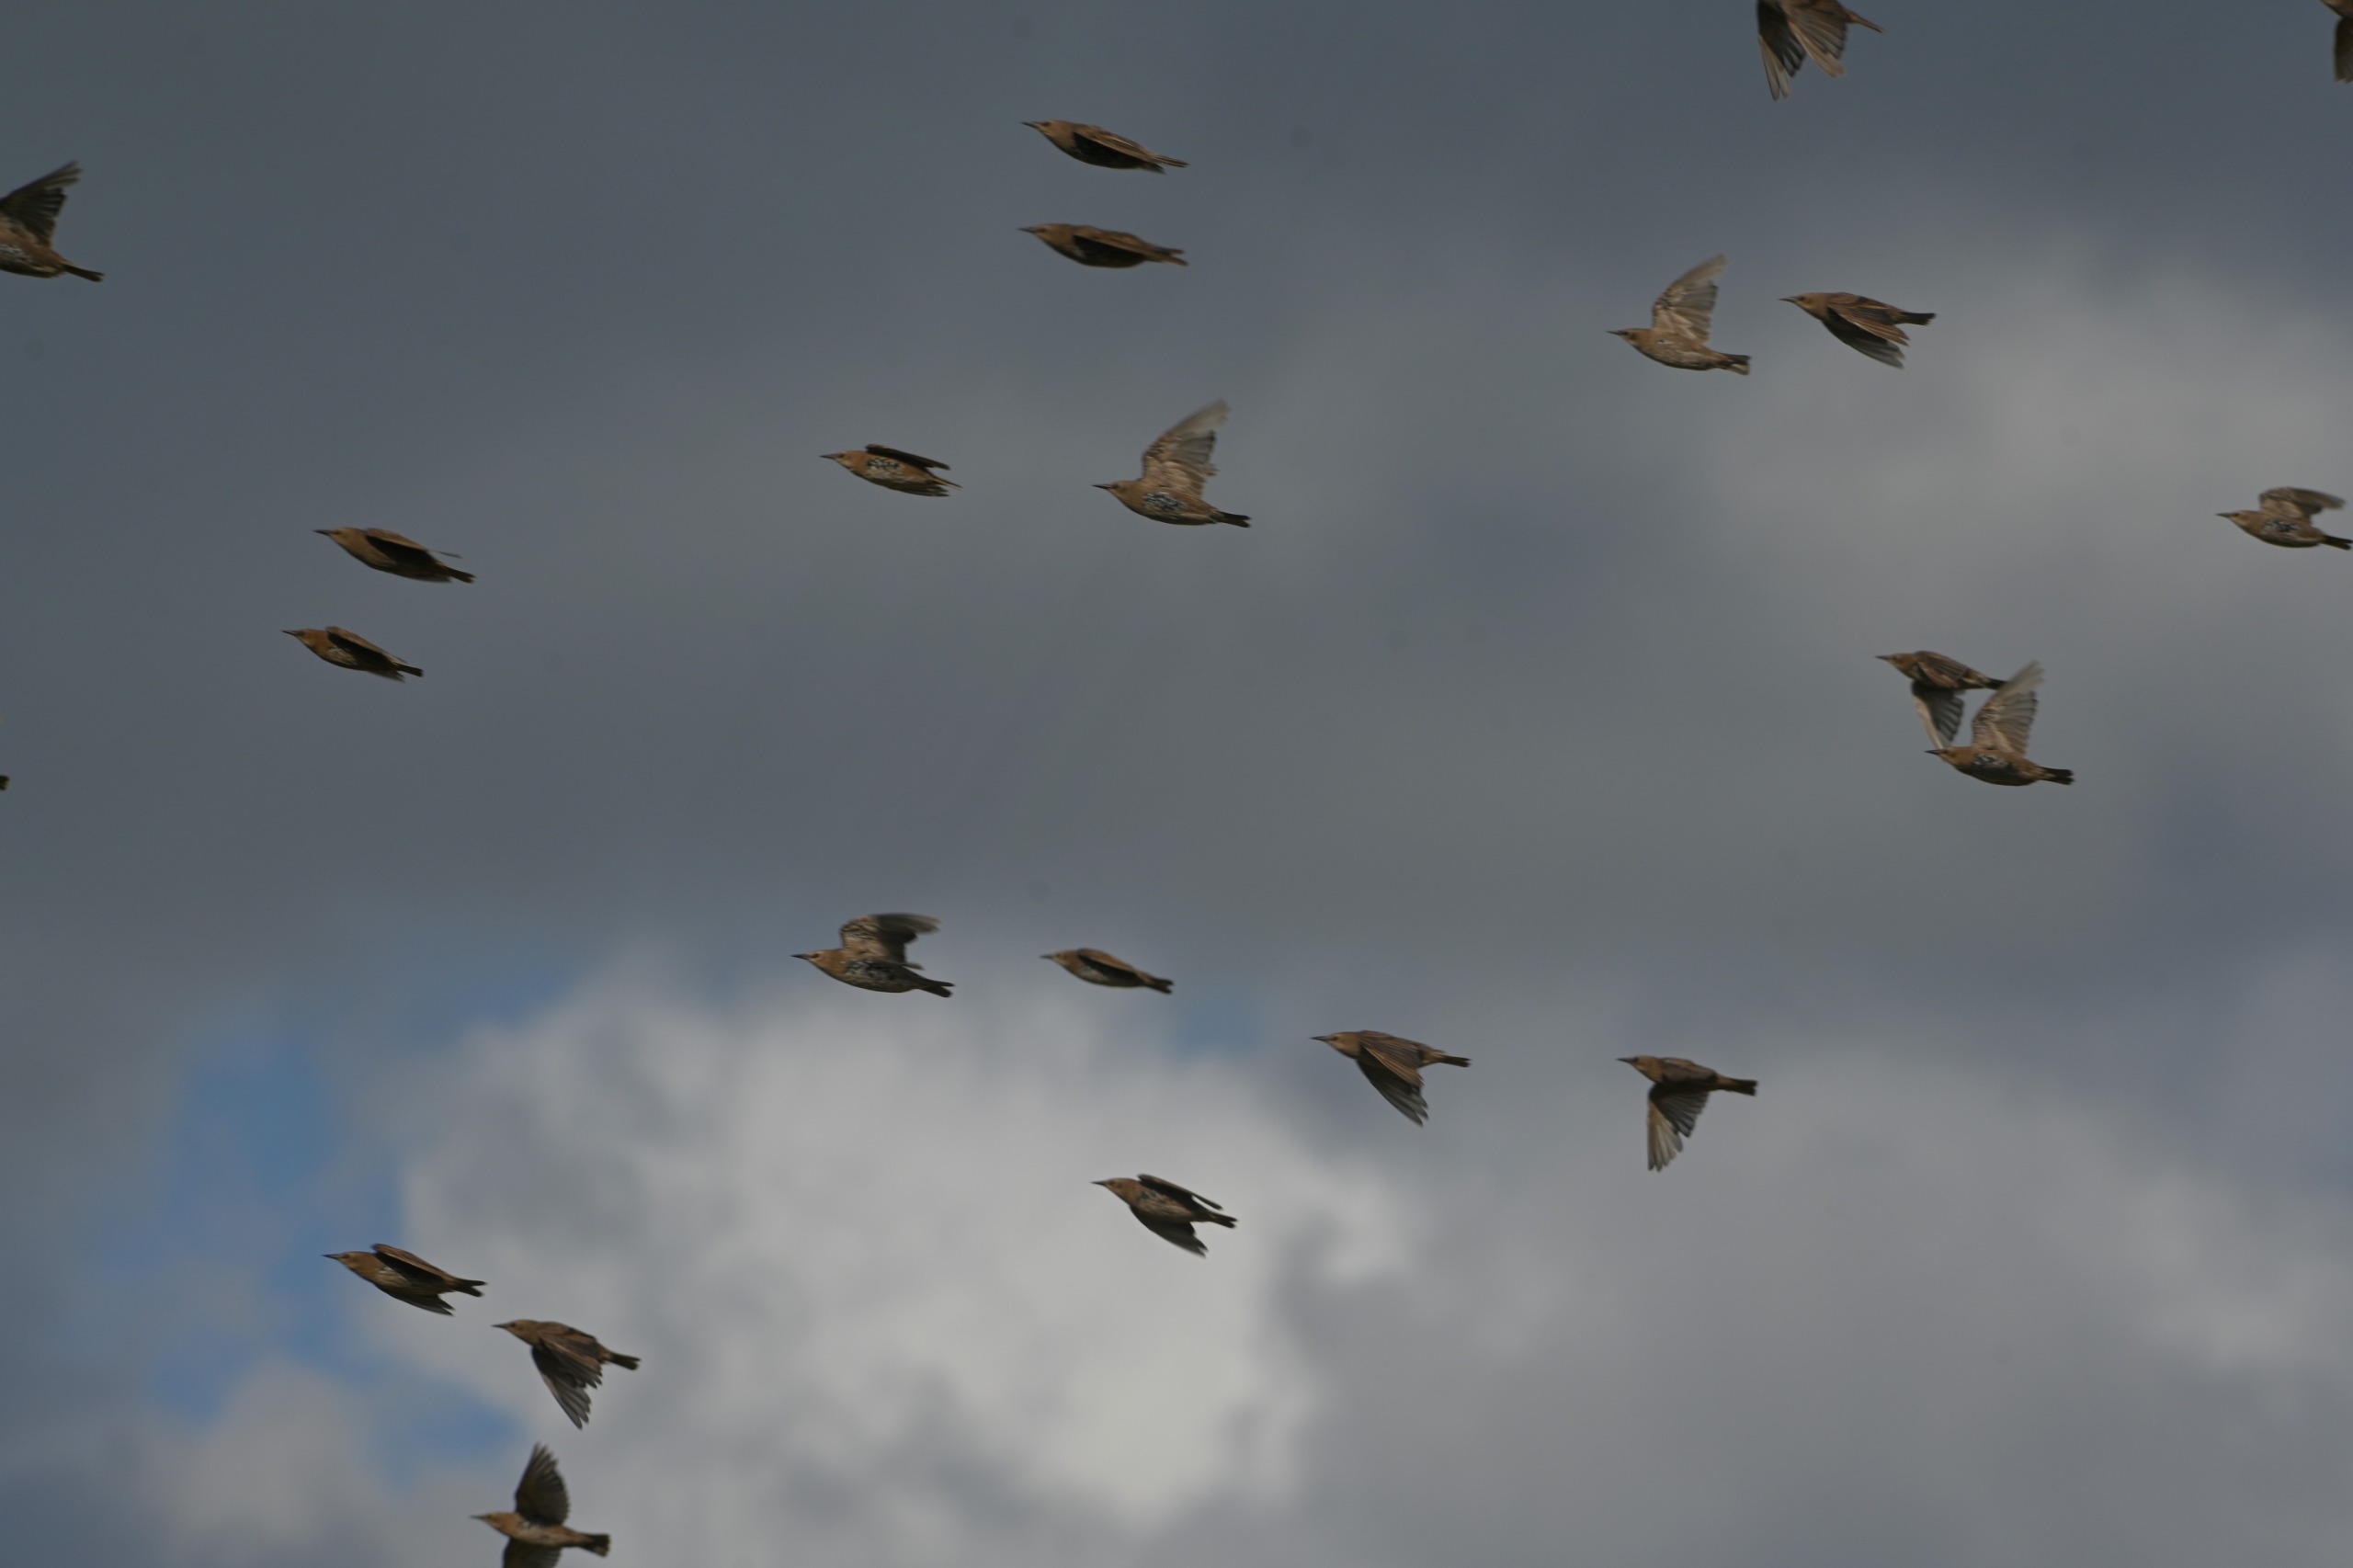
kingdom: Animalia
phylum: Chordata
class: Aves
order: Passeriformes
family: Sturnidae
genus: Sturnus
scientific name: Sturnus vulgaris
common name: Stær
